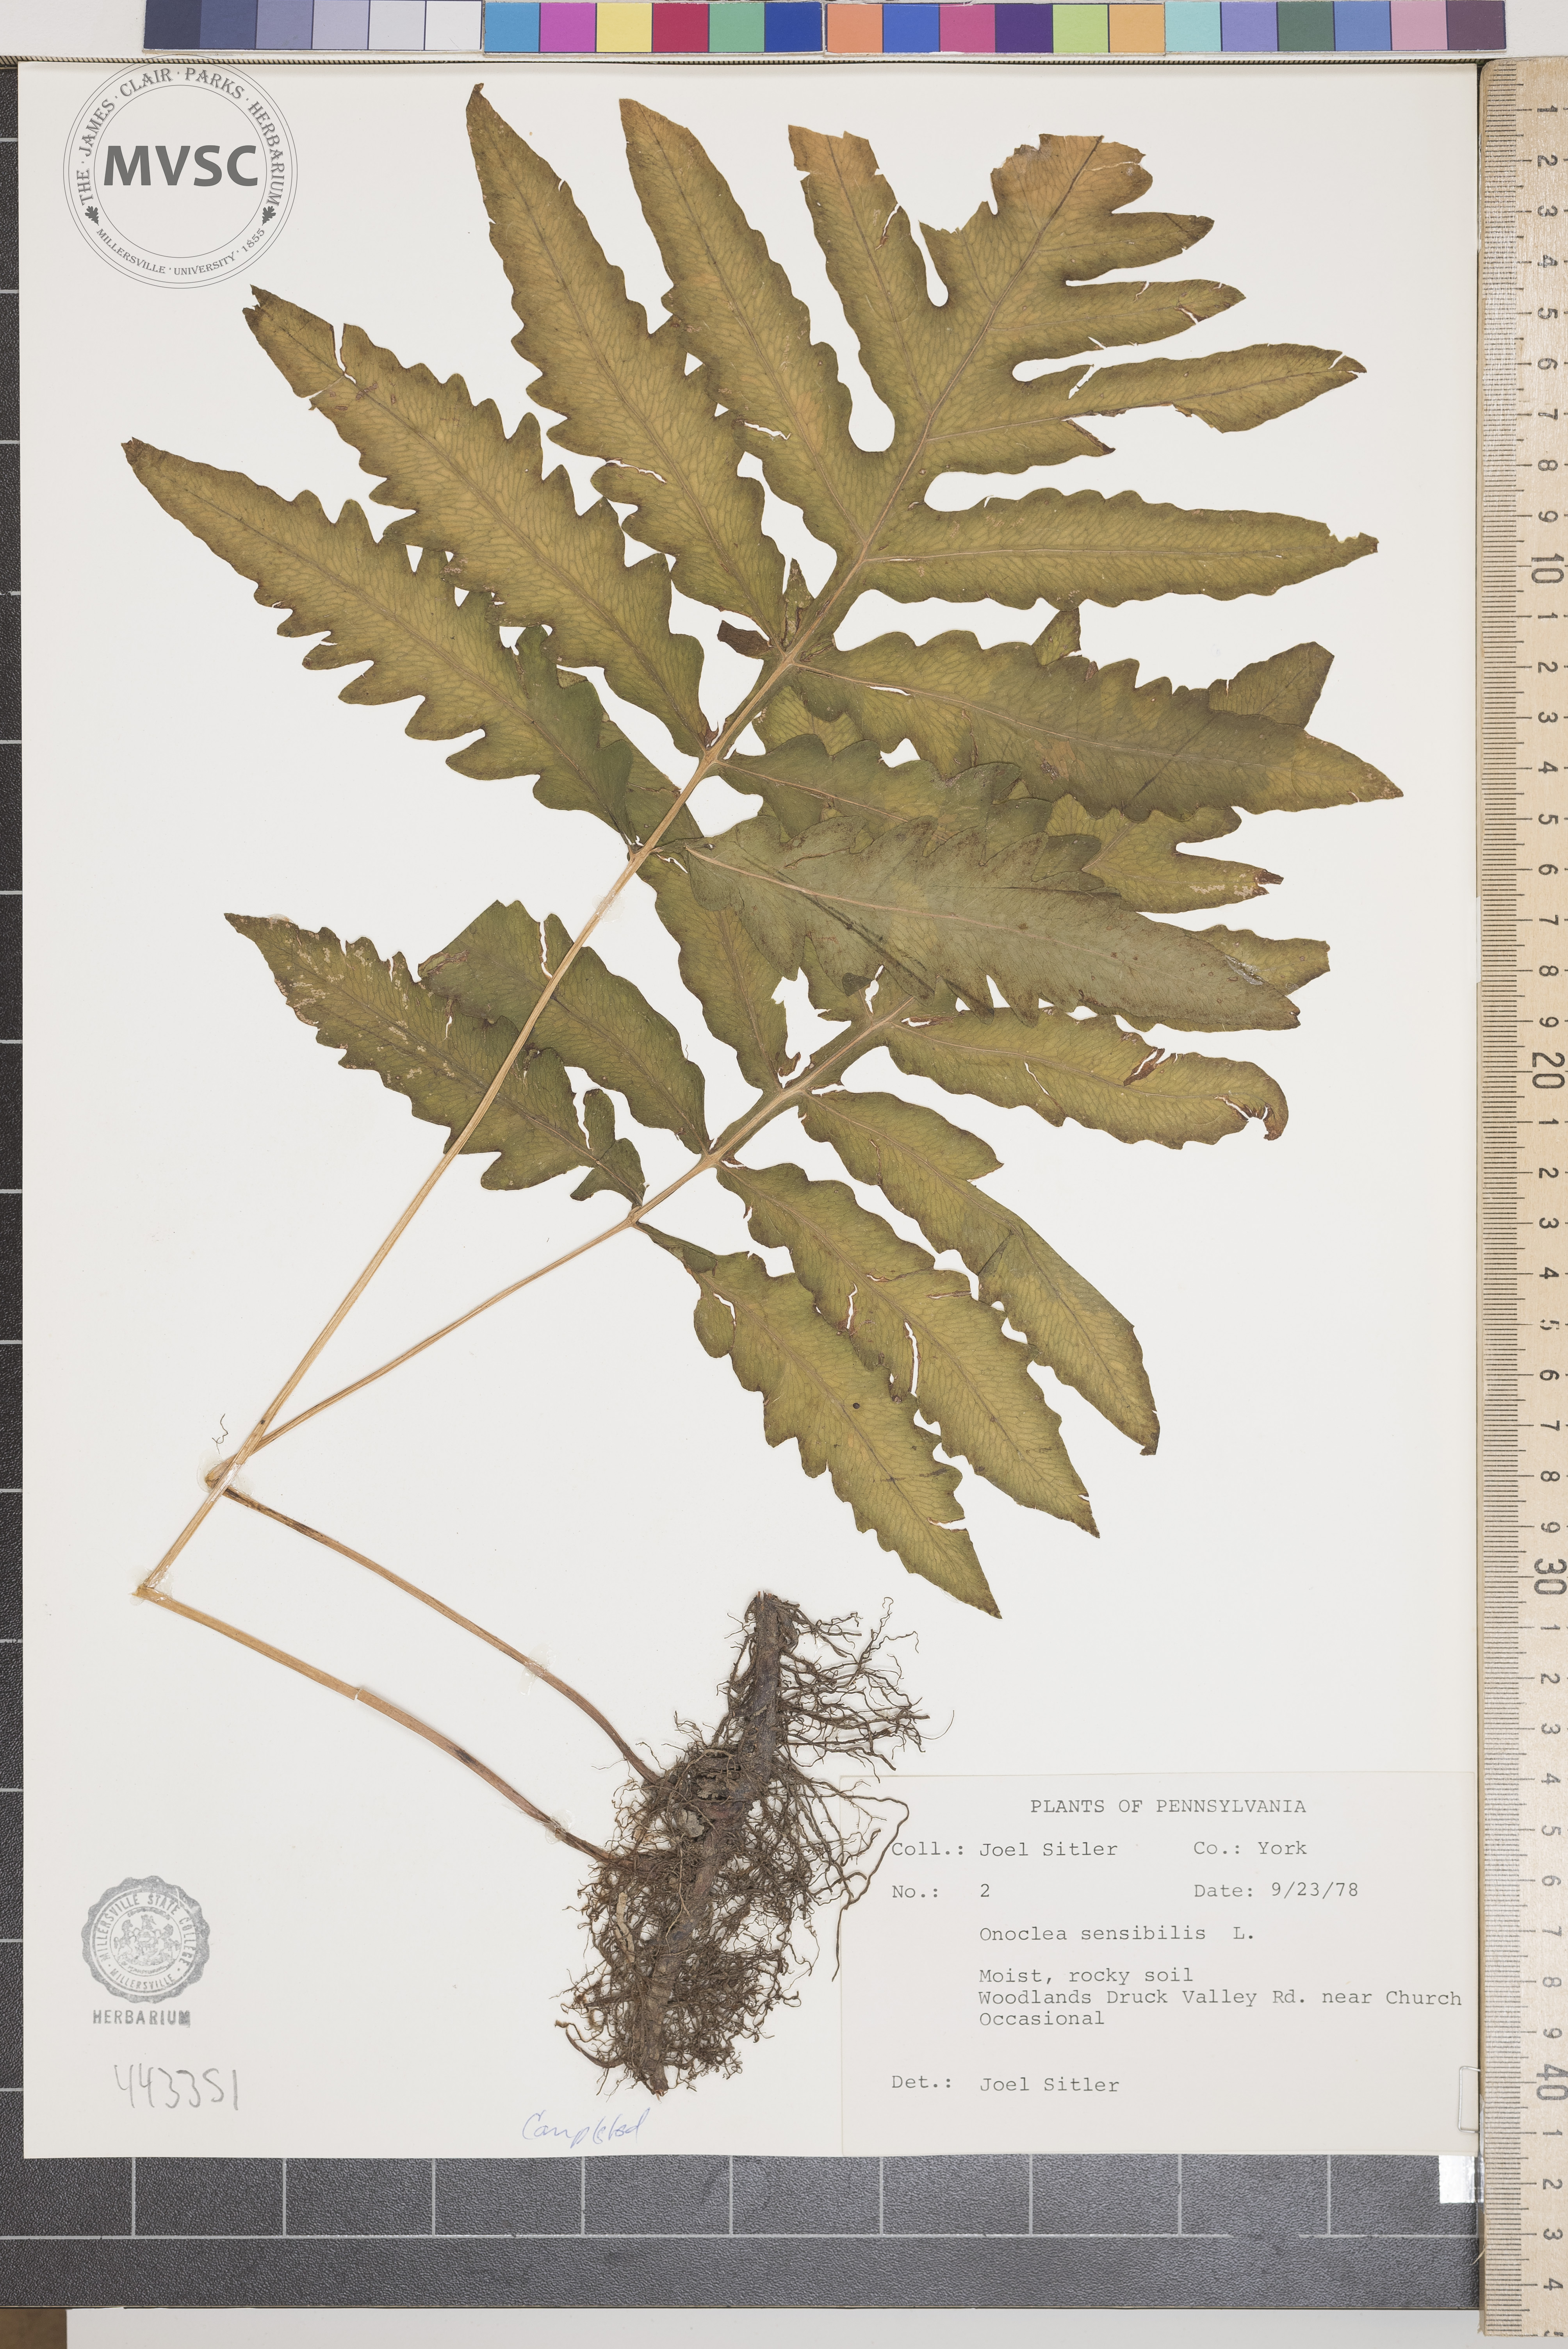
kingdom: Plantae
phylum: Tracheophyta
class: Polypodiopsida
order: Polypodiales
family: Onocleaceae
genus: Onoclea
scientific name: Onoclea sensibilis
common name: Sensitive fern
